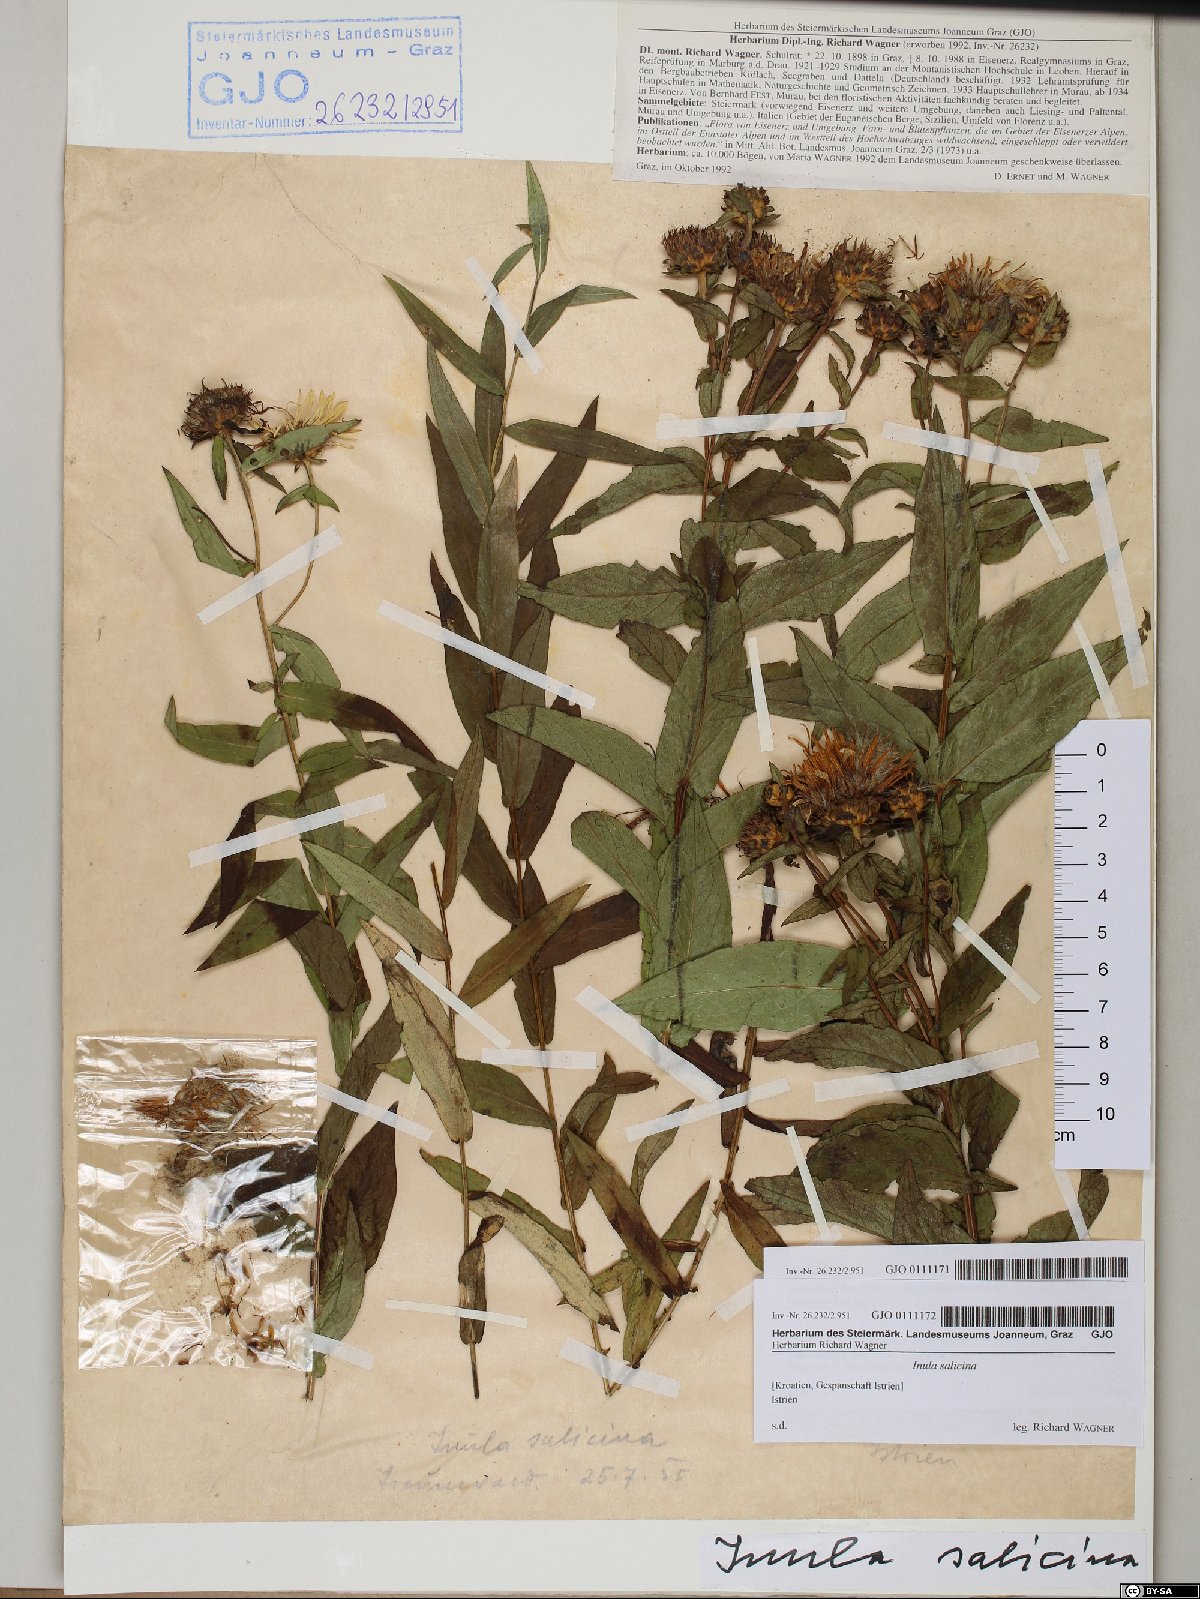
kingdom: Plantae
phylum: Tracheophyta
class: Magnoliopsida
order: Asterales
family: Asteraceae
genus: Pentanema
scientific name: Pentanema salicinum
